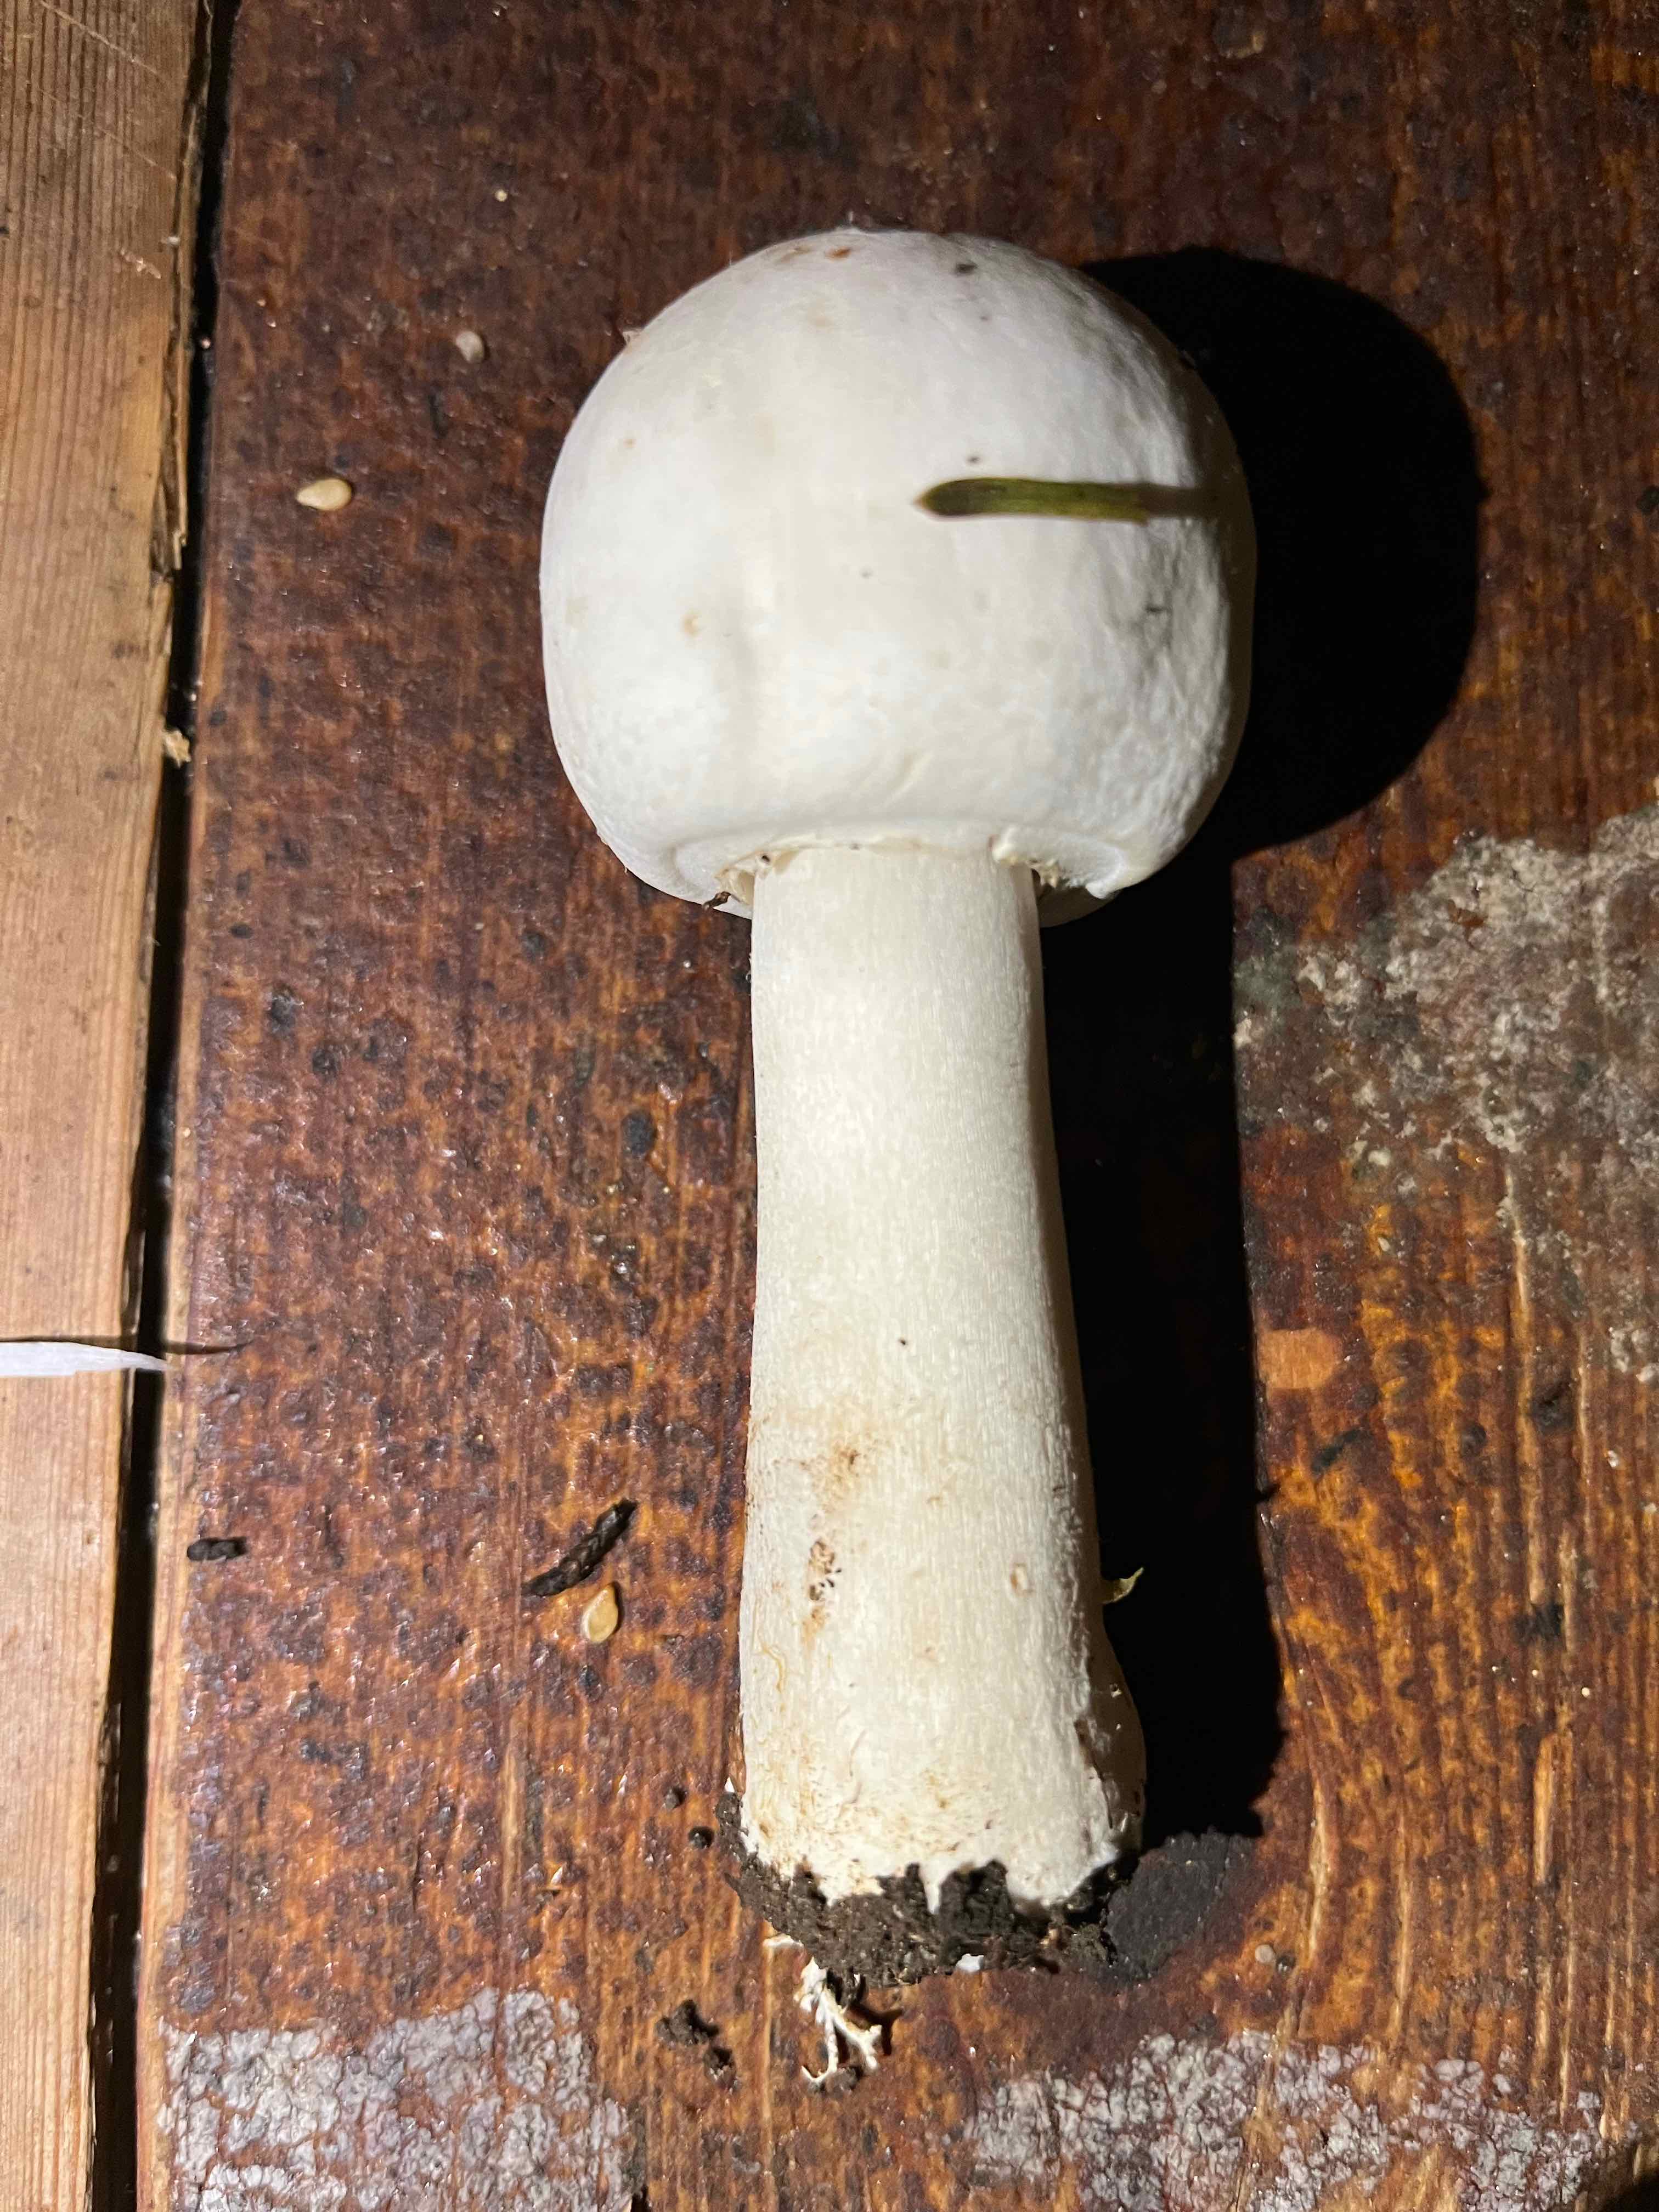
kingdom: Fungi
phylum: Basidiomycota
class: Agaricomycetes
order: Agaricales
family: Agaricaceae
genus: Agaricus
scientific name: Agaricus xanthodermus
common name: karbol-champignon
